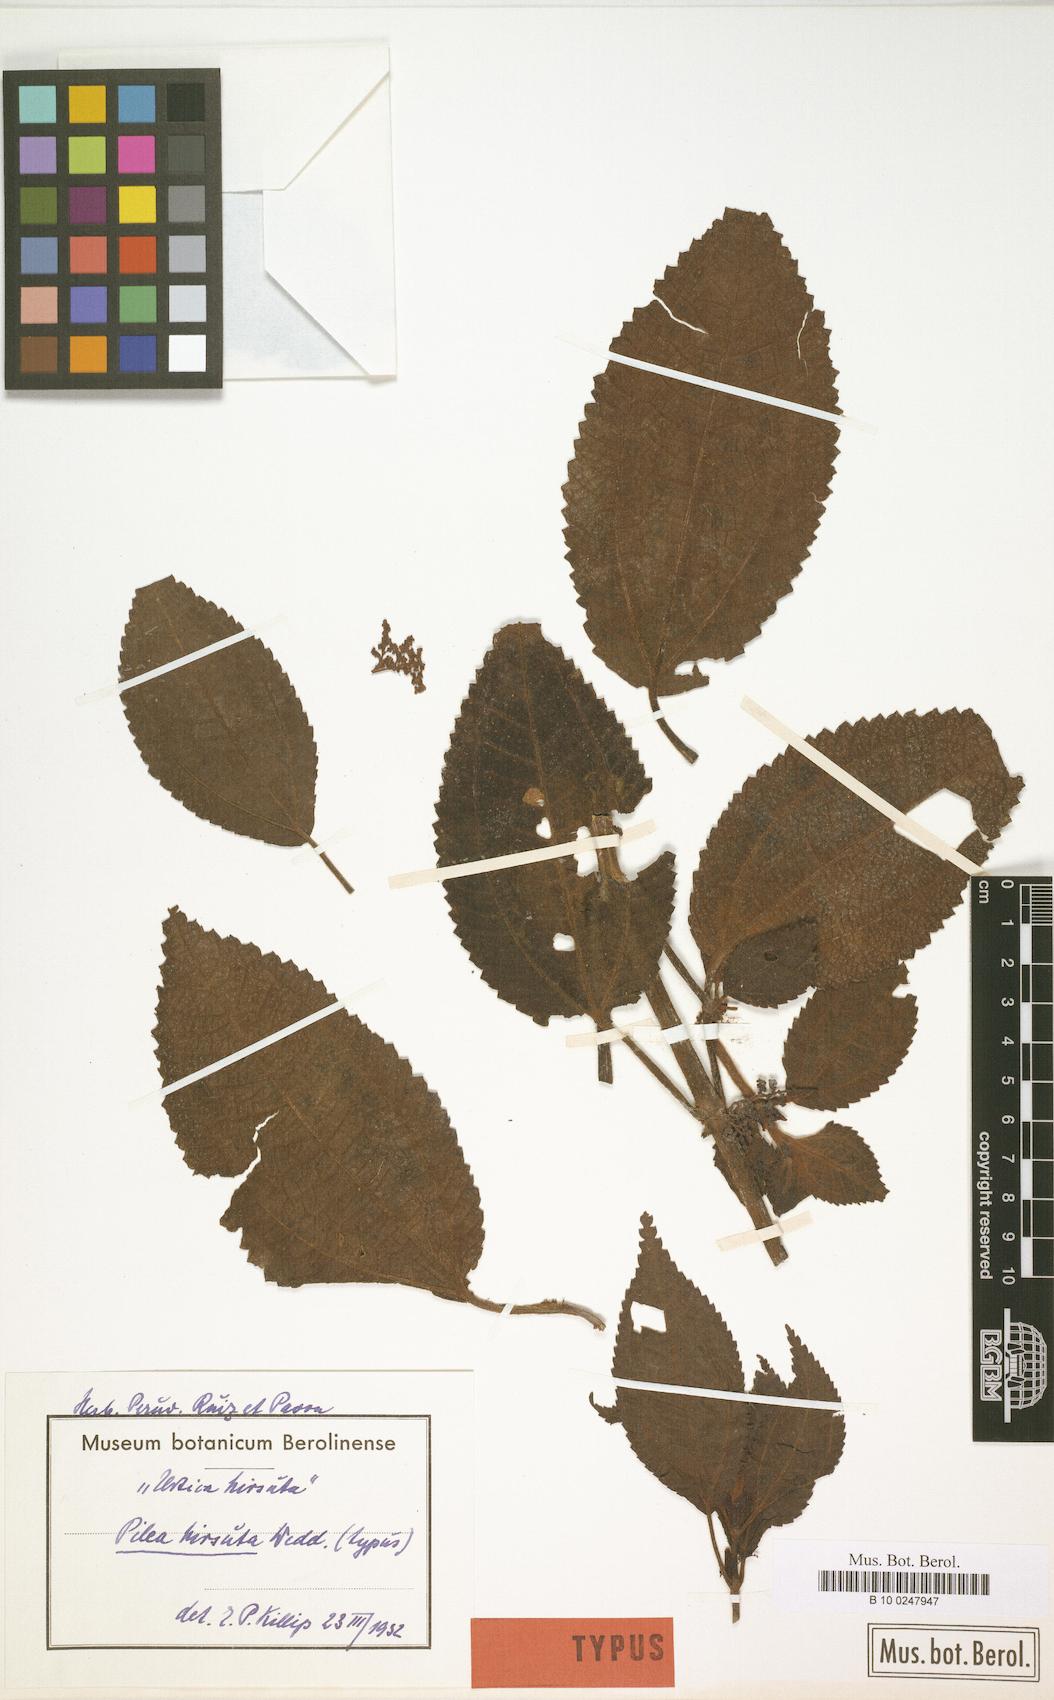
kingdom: Plantae
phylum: Tracheophyta
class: Magnoliopsida
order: Rosales
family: Urticaceae
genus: Pilea
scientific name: Pilea hirsuta
